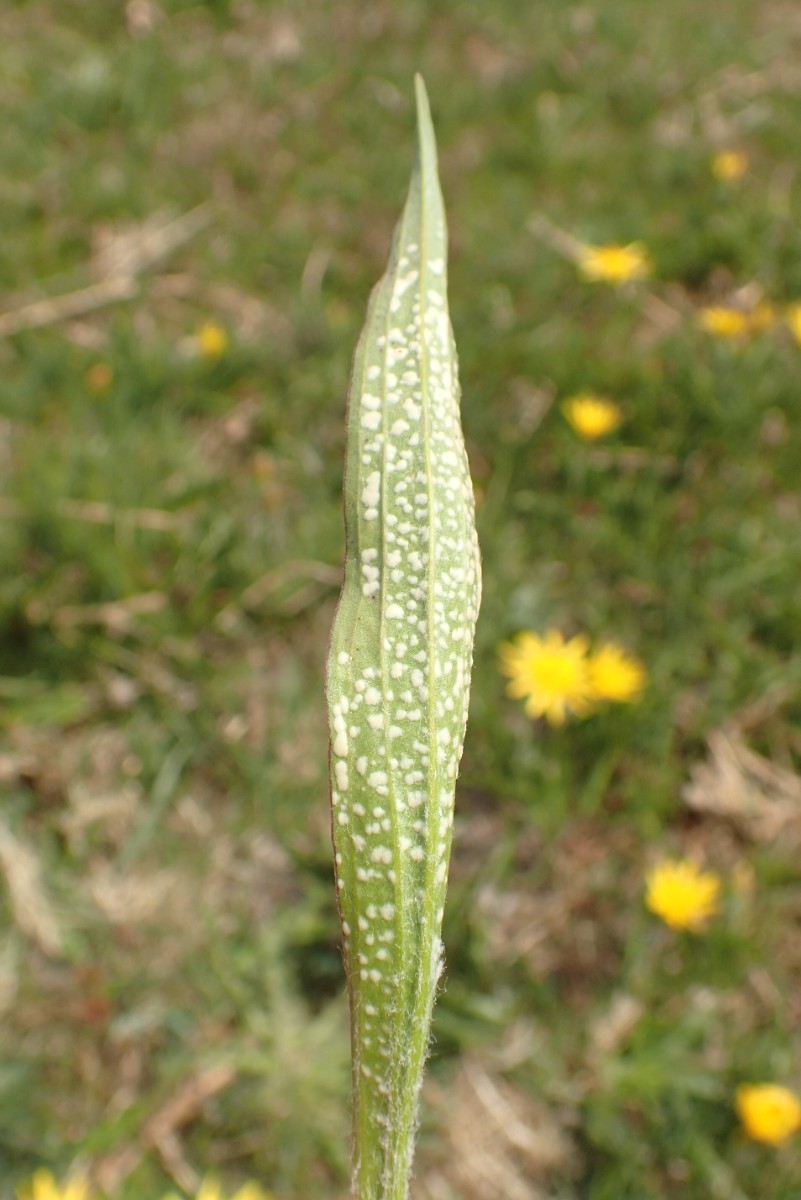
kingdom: Chromista
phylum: Oomycota
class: Peronosporea
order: Albuginales
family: Albuginaceae
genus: Pustula
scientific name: Pustula tragopogonis
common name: Sunflower white rust
